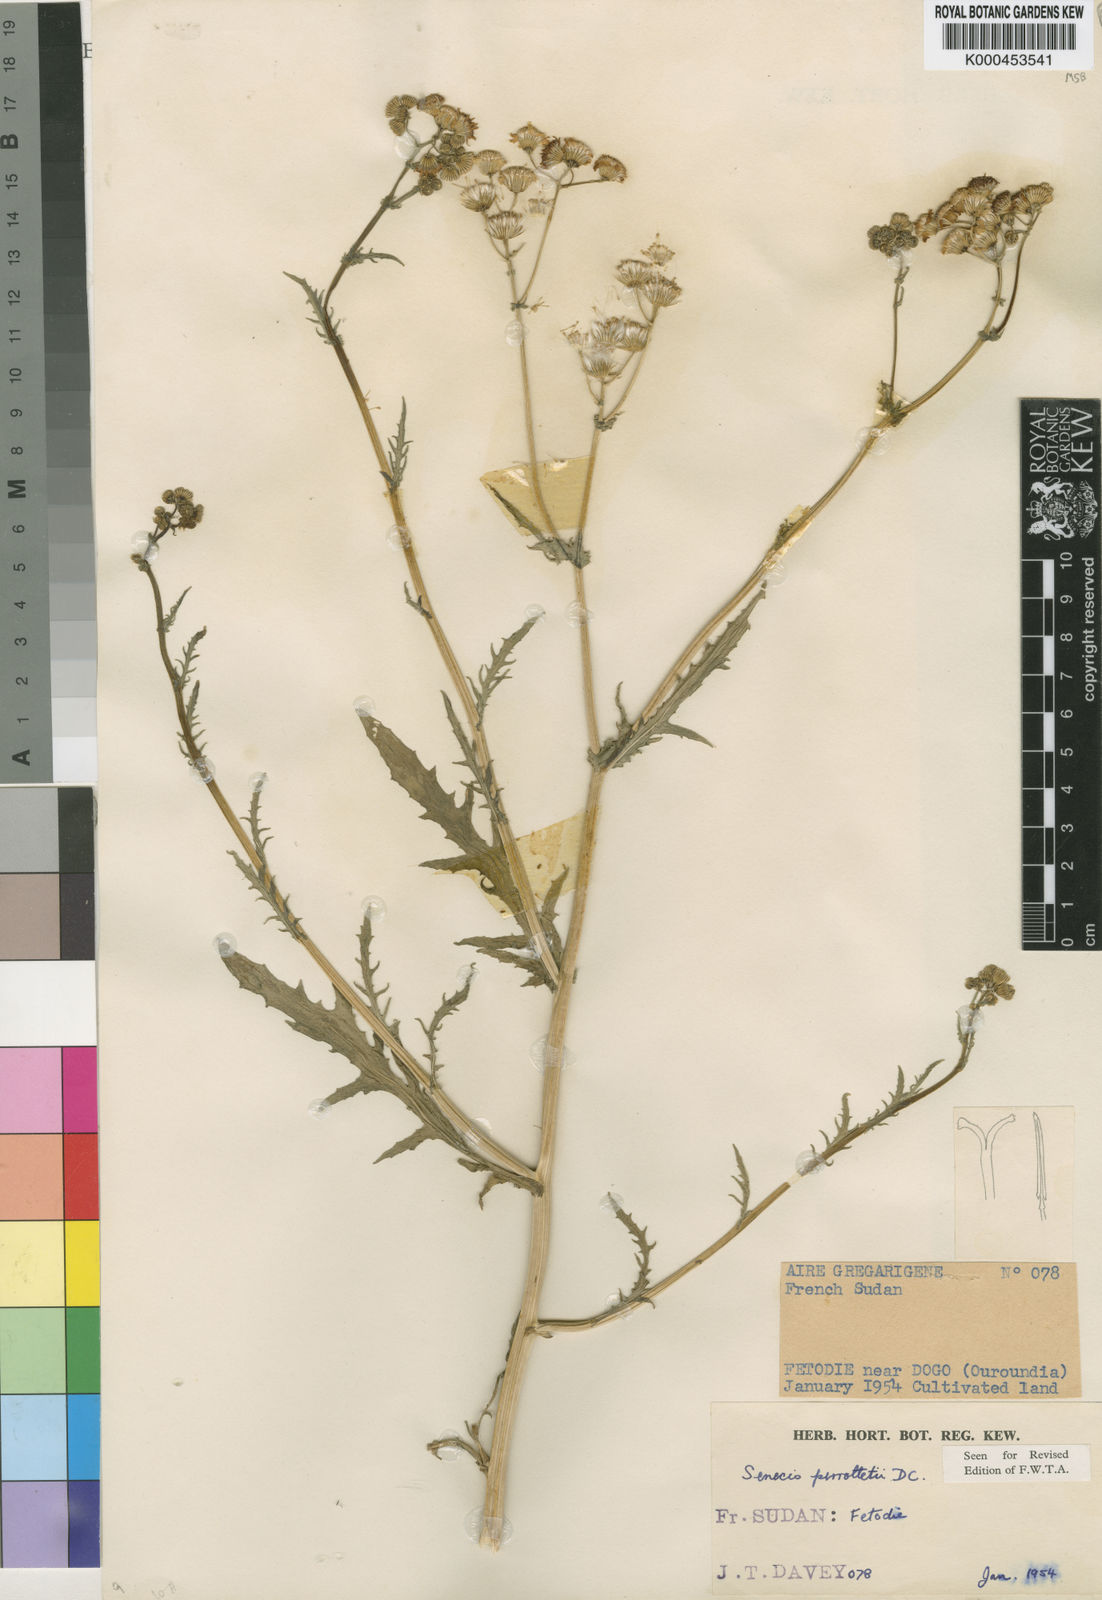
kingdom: Plantae
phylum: Tracheophyta
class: Magnoliopsida
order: Asterales
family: Asteraceae
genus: Senecio
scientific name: Senecio perrottetii
